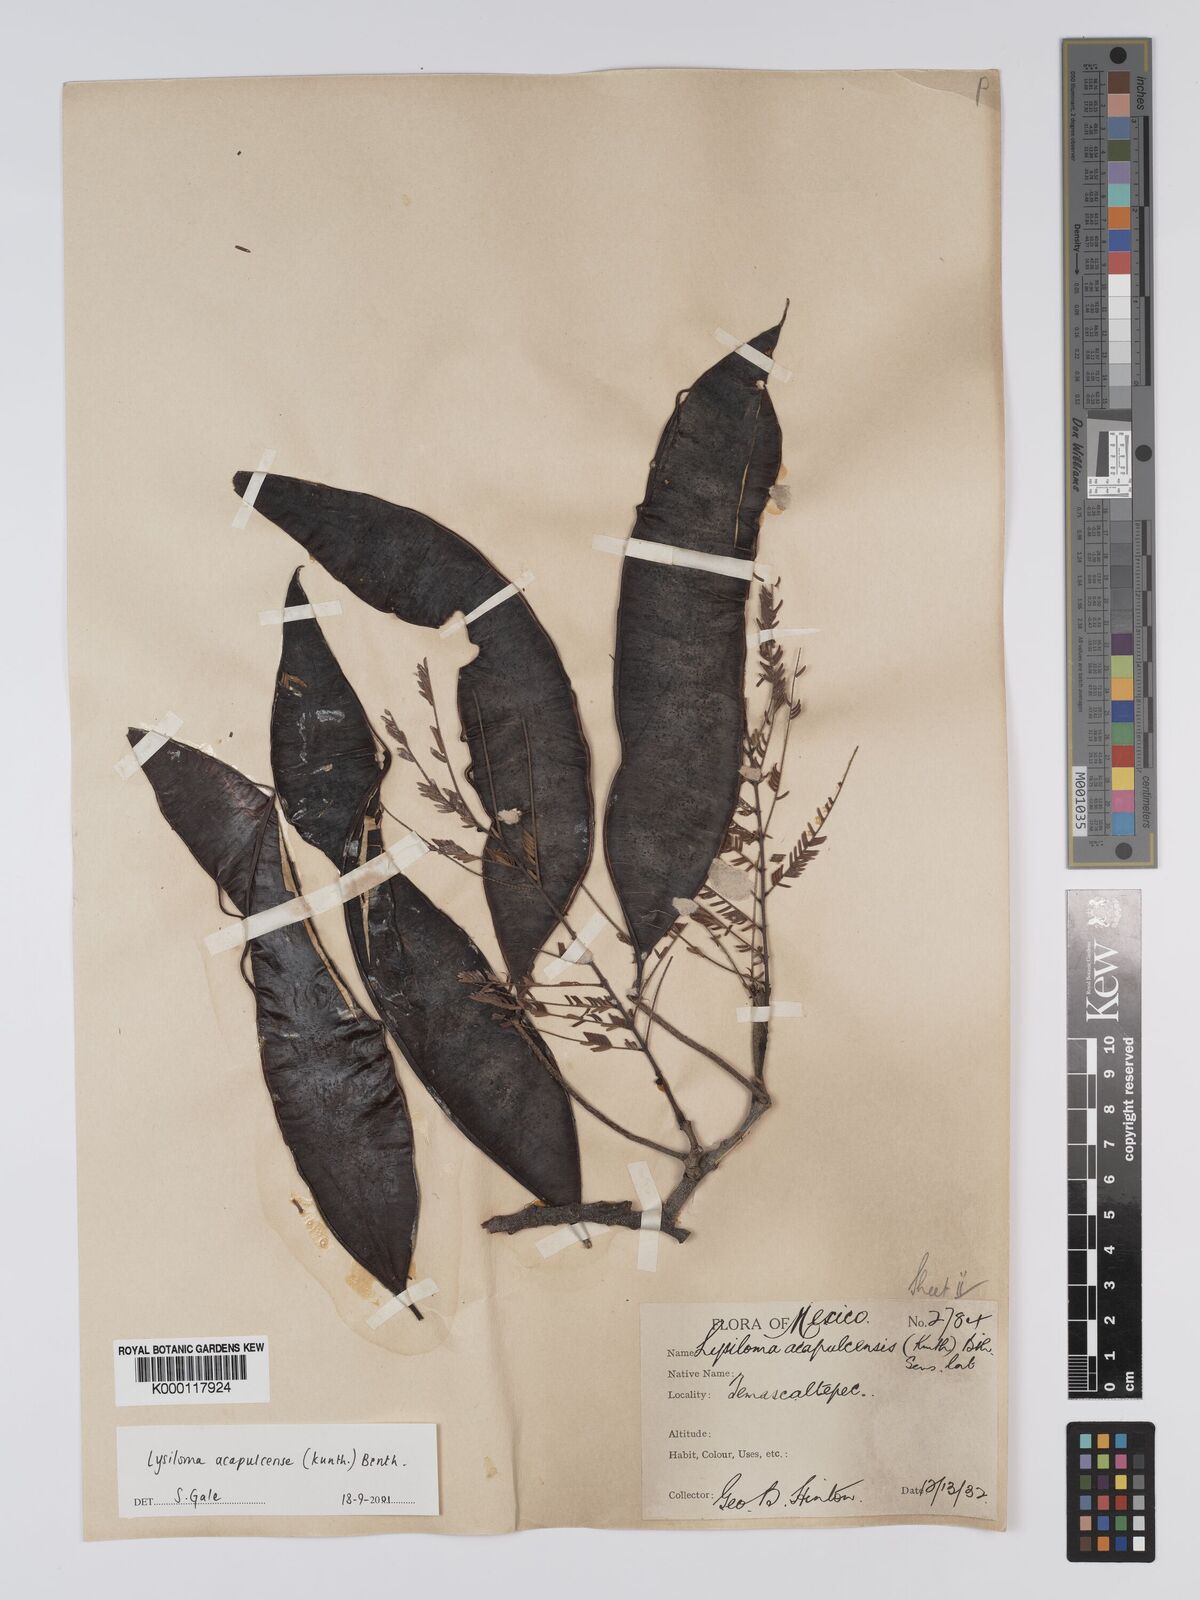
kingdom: Plantae
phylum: Tracheophyta
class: Magnoliopsida
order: Fabales
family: Fabaceae
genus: Lysiloma
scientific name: Lysiloma acapulcense
